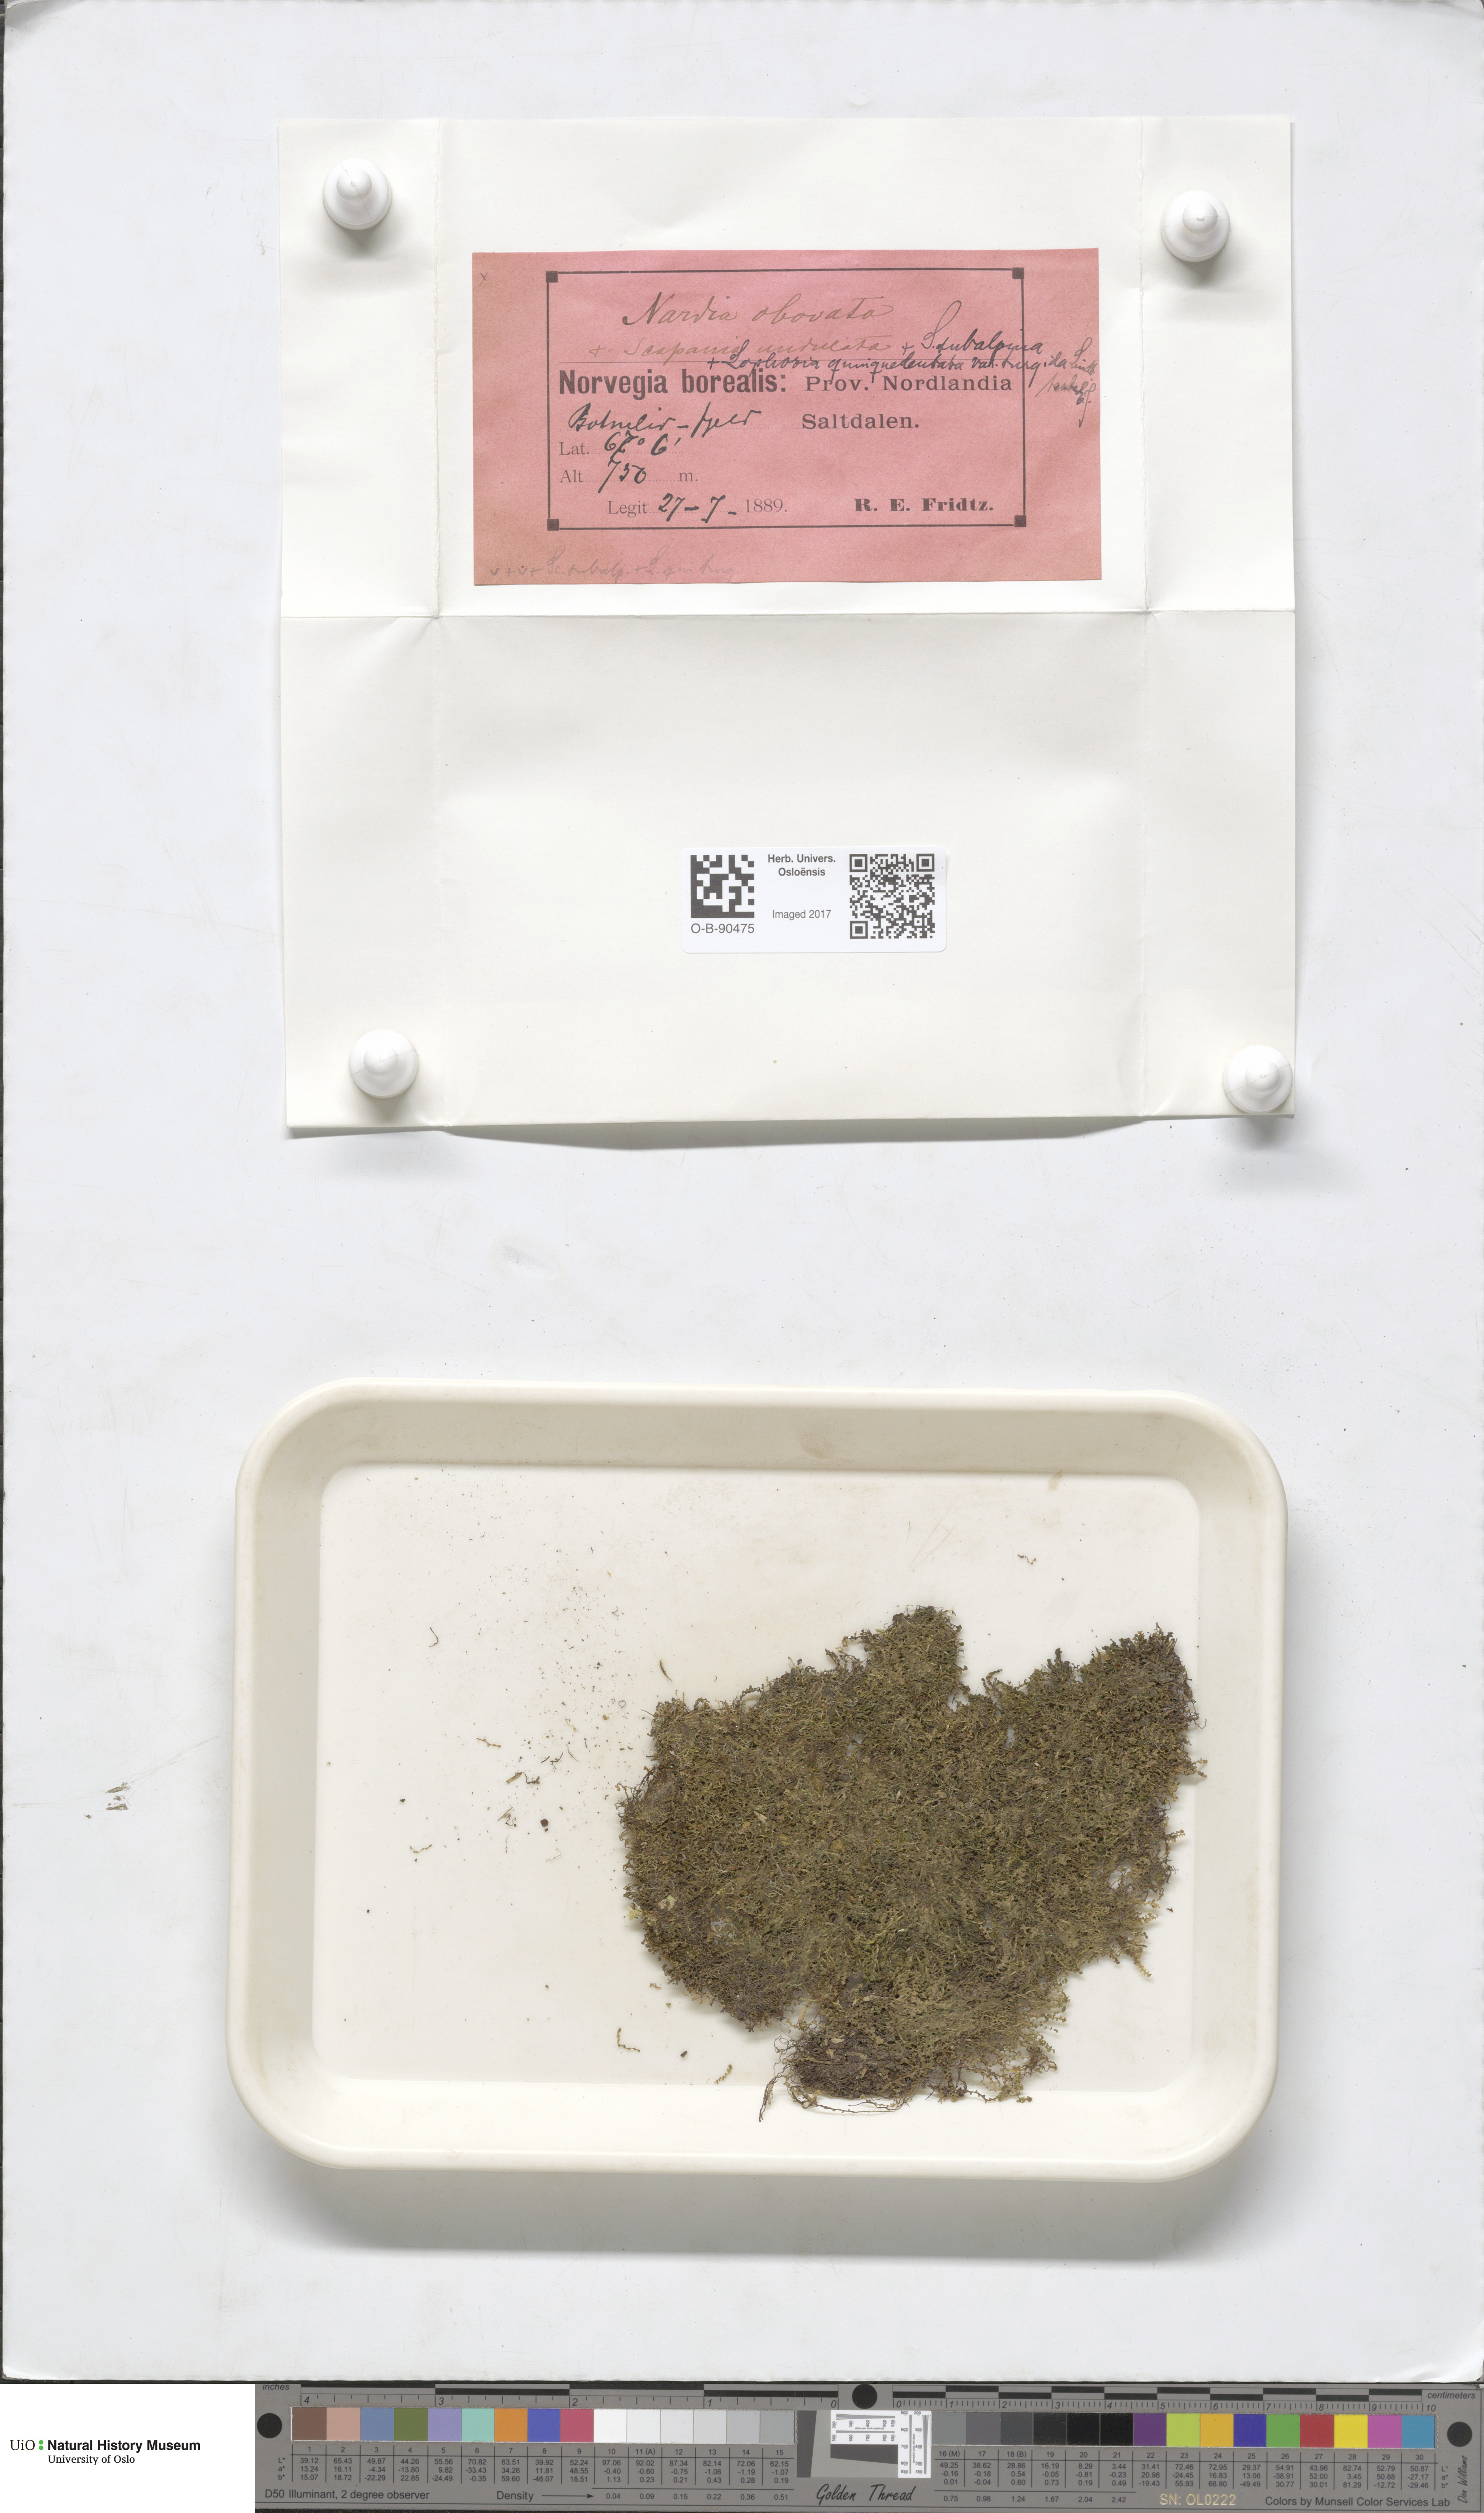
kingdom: Plantae
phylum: Marchantiophyta
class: Jungermanniopsida
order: Jungermanniales
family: Solenostomataceae
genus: Solenostoma
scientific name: Solenostoma obovatum
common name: Egg flapwort
